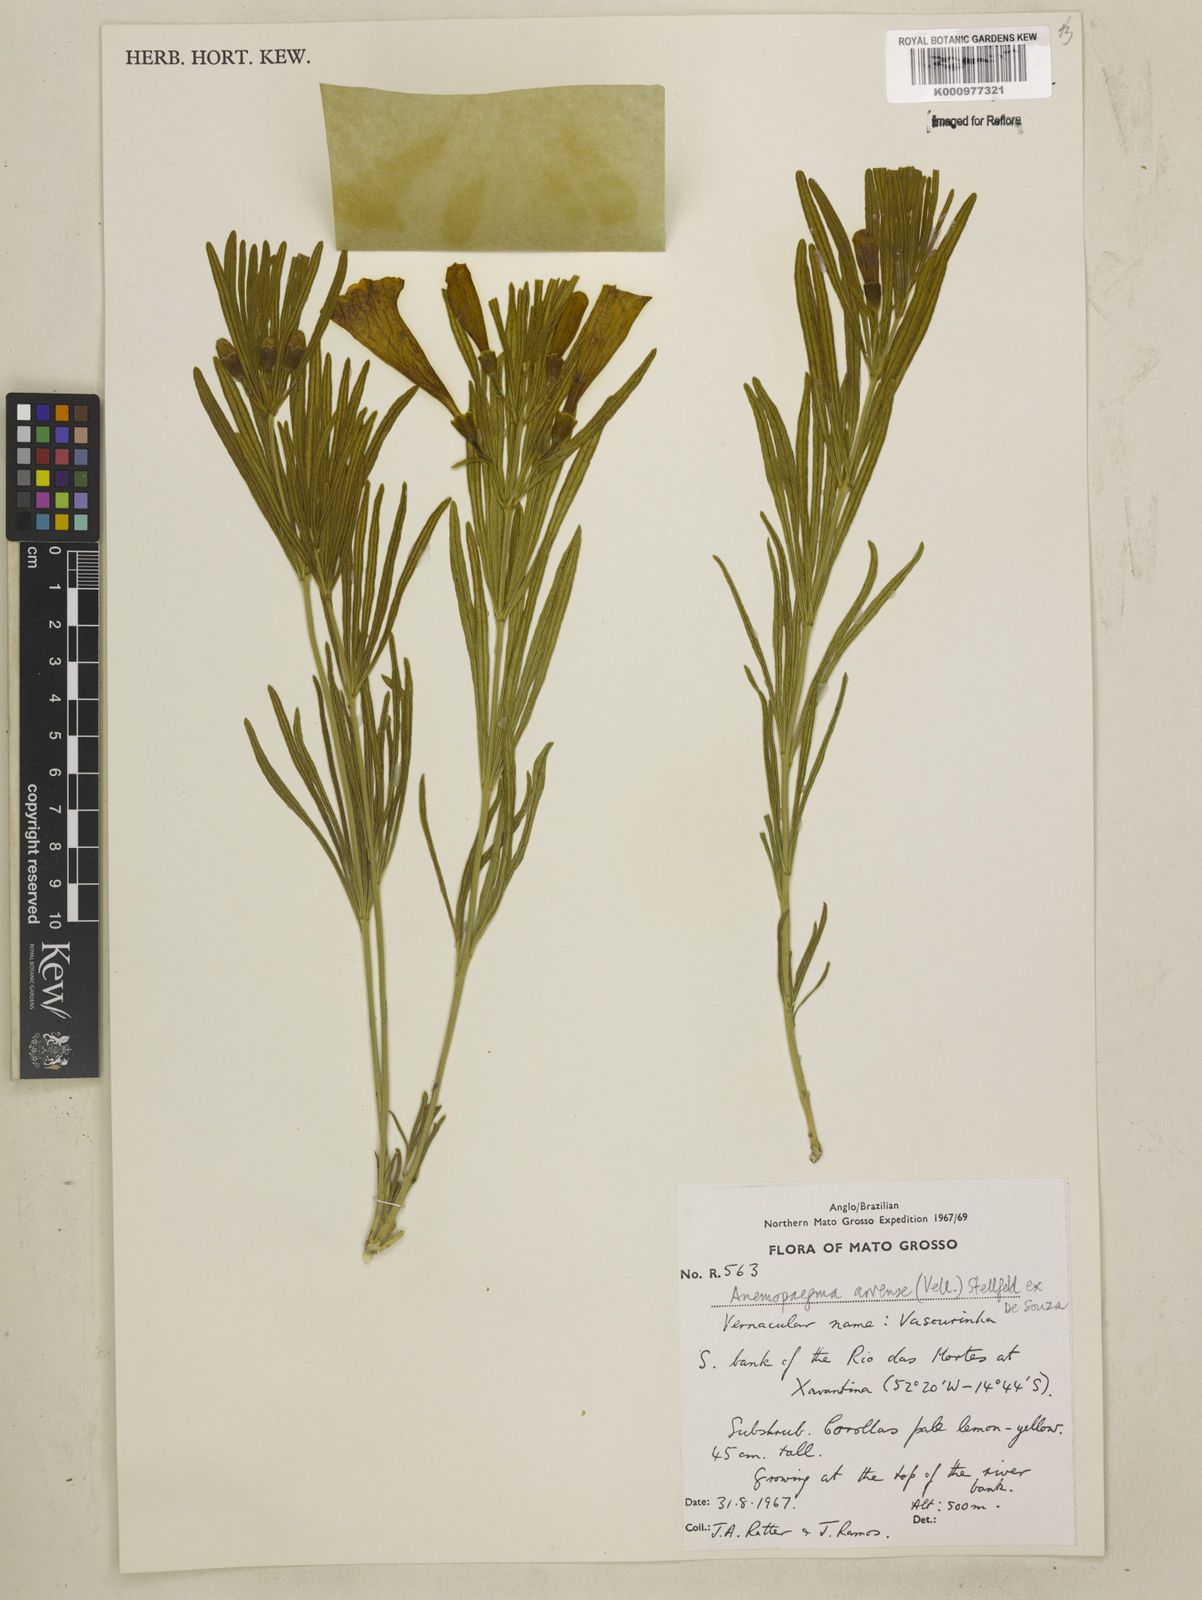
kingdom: Plantae
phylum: Tracheophyta
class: Magnoliopsida
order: Lamiales
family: Bignoniaceae
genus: Anemopaegma
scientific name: Anemopaegma arvense
